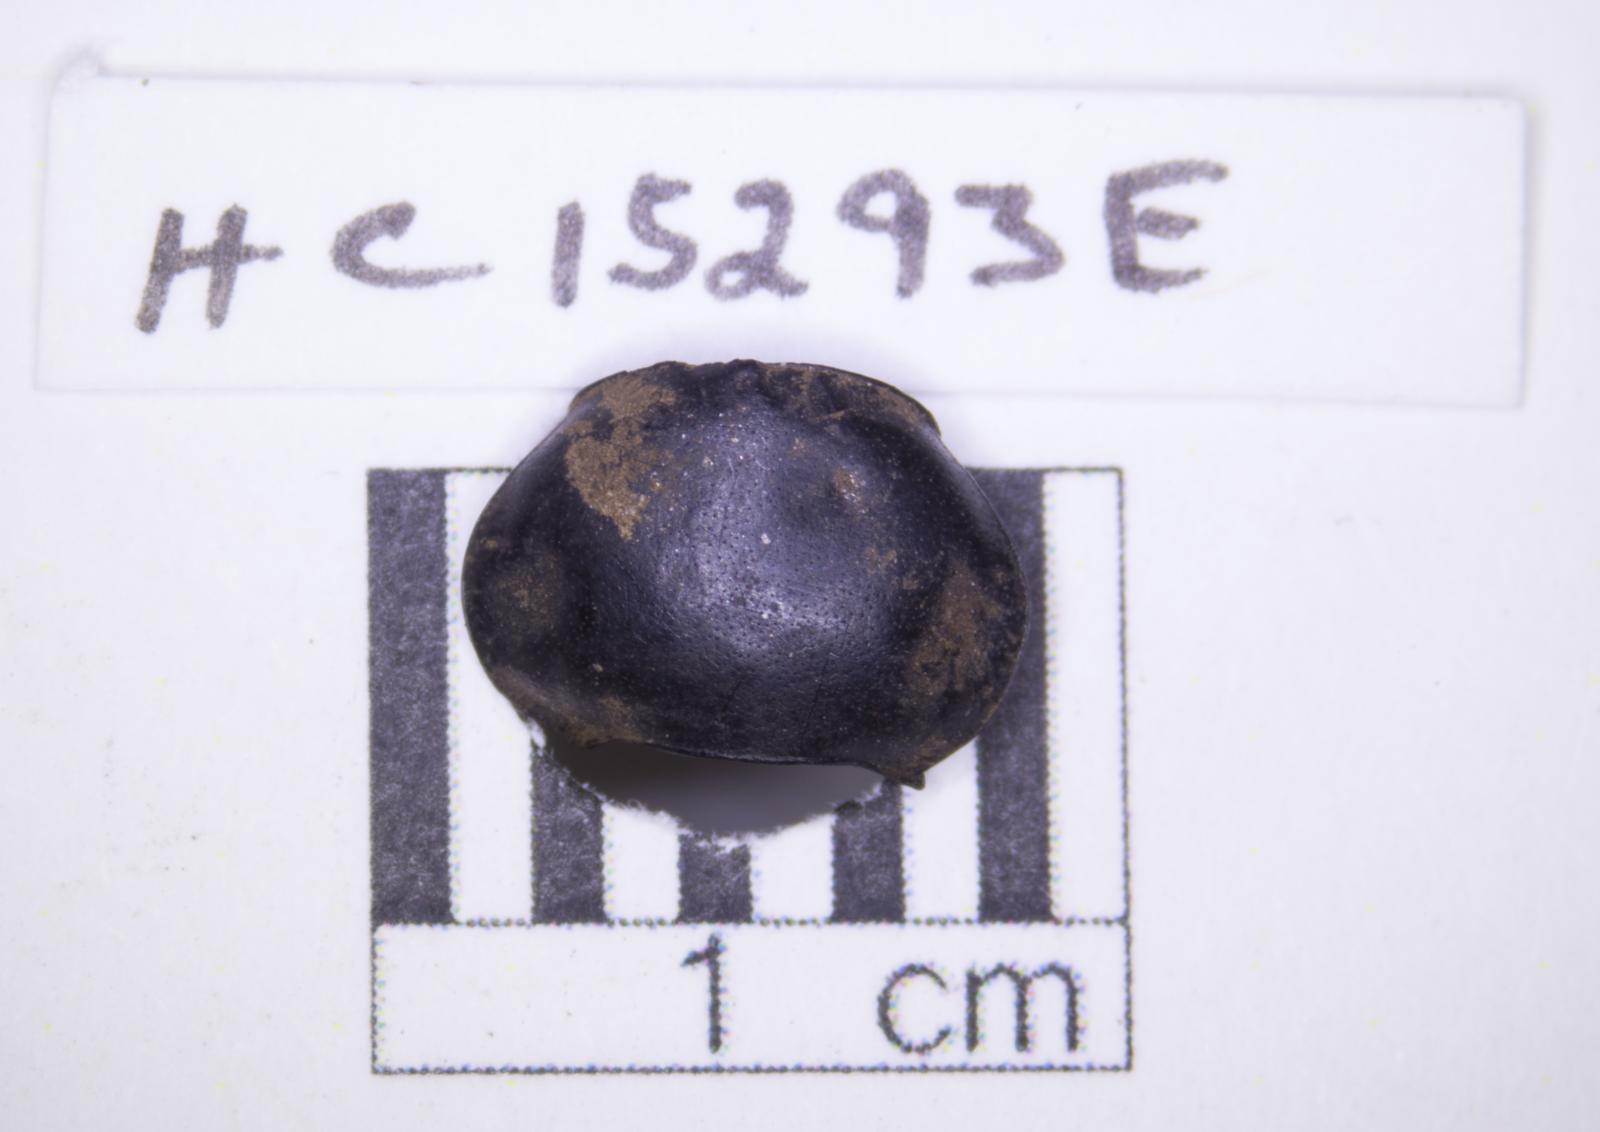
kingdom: Animalia
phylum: Arthropoda
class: Insecta
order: Coleoptera
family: Tenebrionidae
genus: Eleodes
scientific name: Eleodes acuticauda
